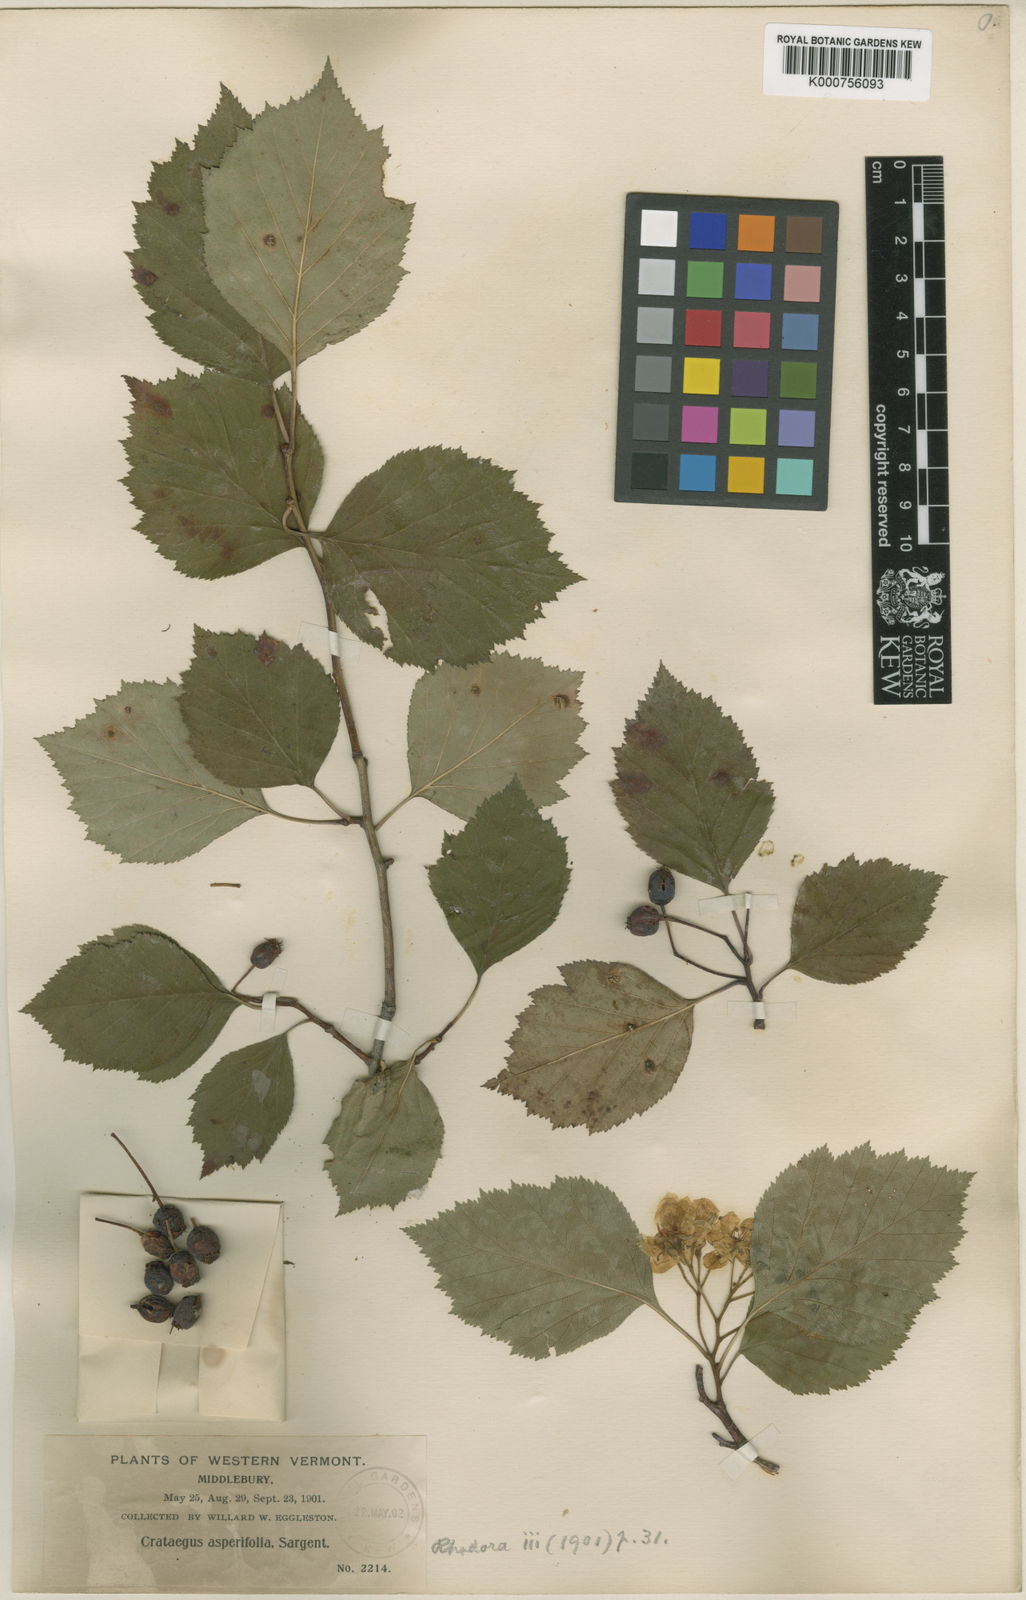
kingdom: Plantae
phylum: Tracheophyta
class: Magnoliopsida
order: Rosales
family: Rosaceae
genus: Crataegus
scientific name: Crataegus scabrida
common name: Rough hawthorn
